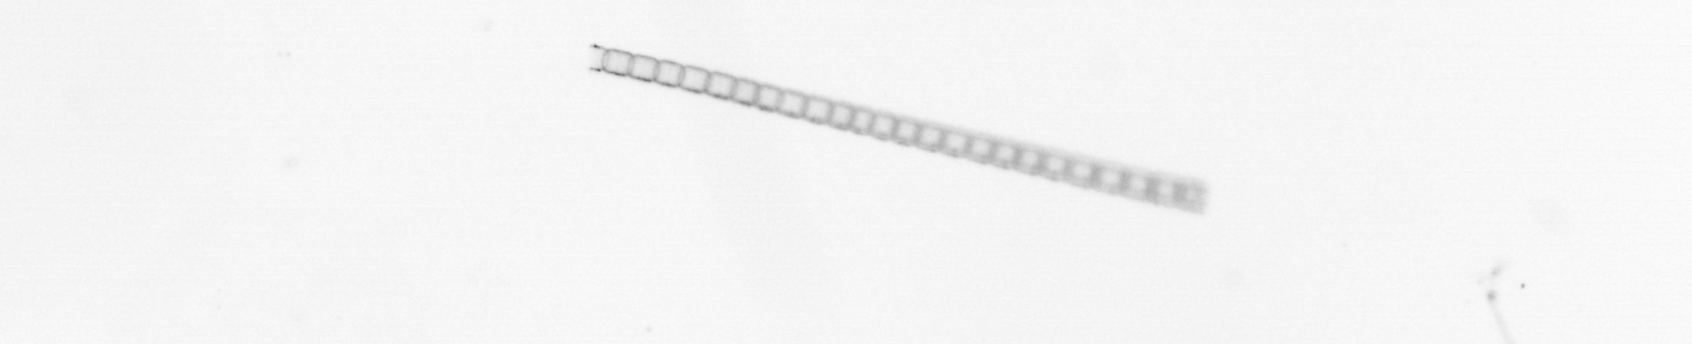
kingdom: Chromista
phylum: Ochrophyta
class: Bacillariophyceae
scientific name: Bacillariophyceae
